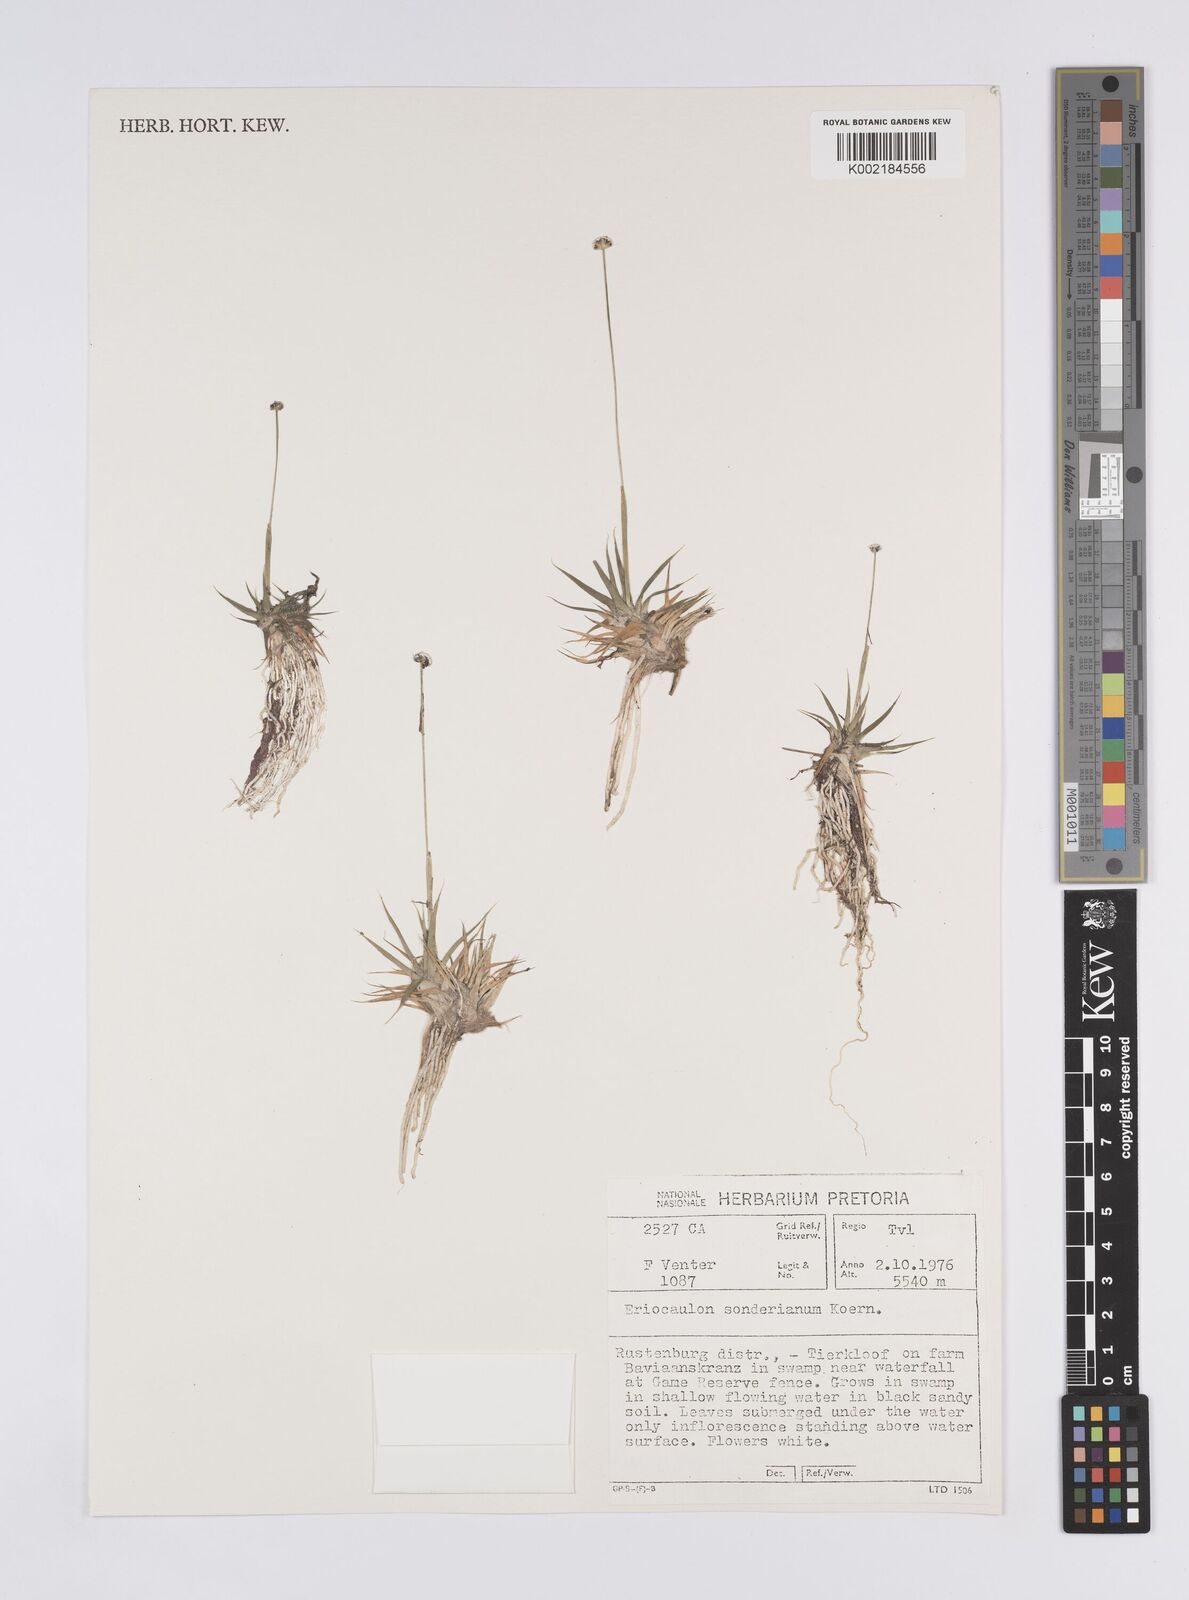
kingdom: Plantae
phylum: Tracheophyta
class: Liliopsida
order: Poales
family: Eriocaulaceae
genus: Eriocaulon
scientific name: Eriocaulon sonderianum
